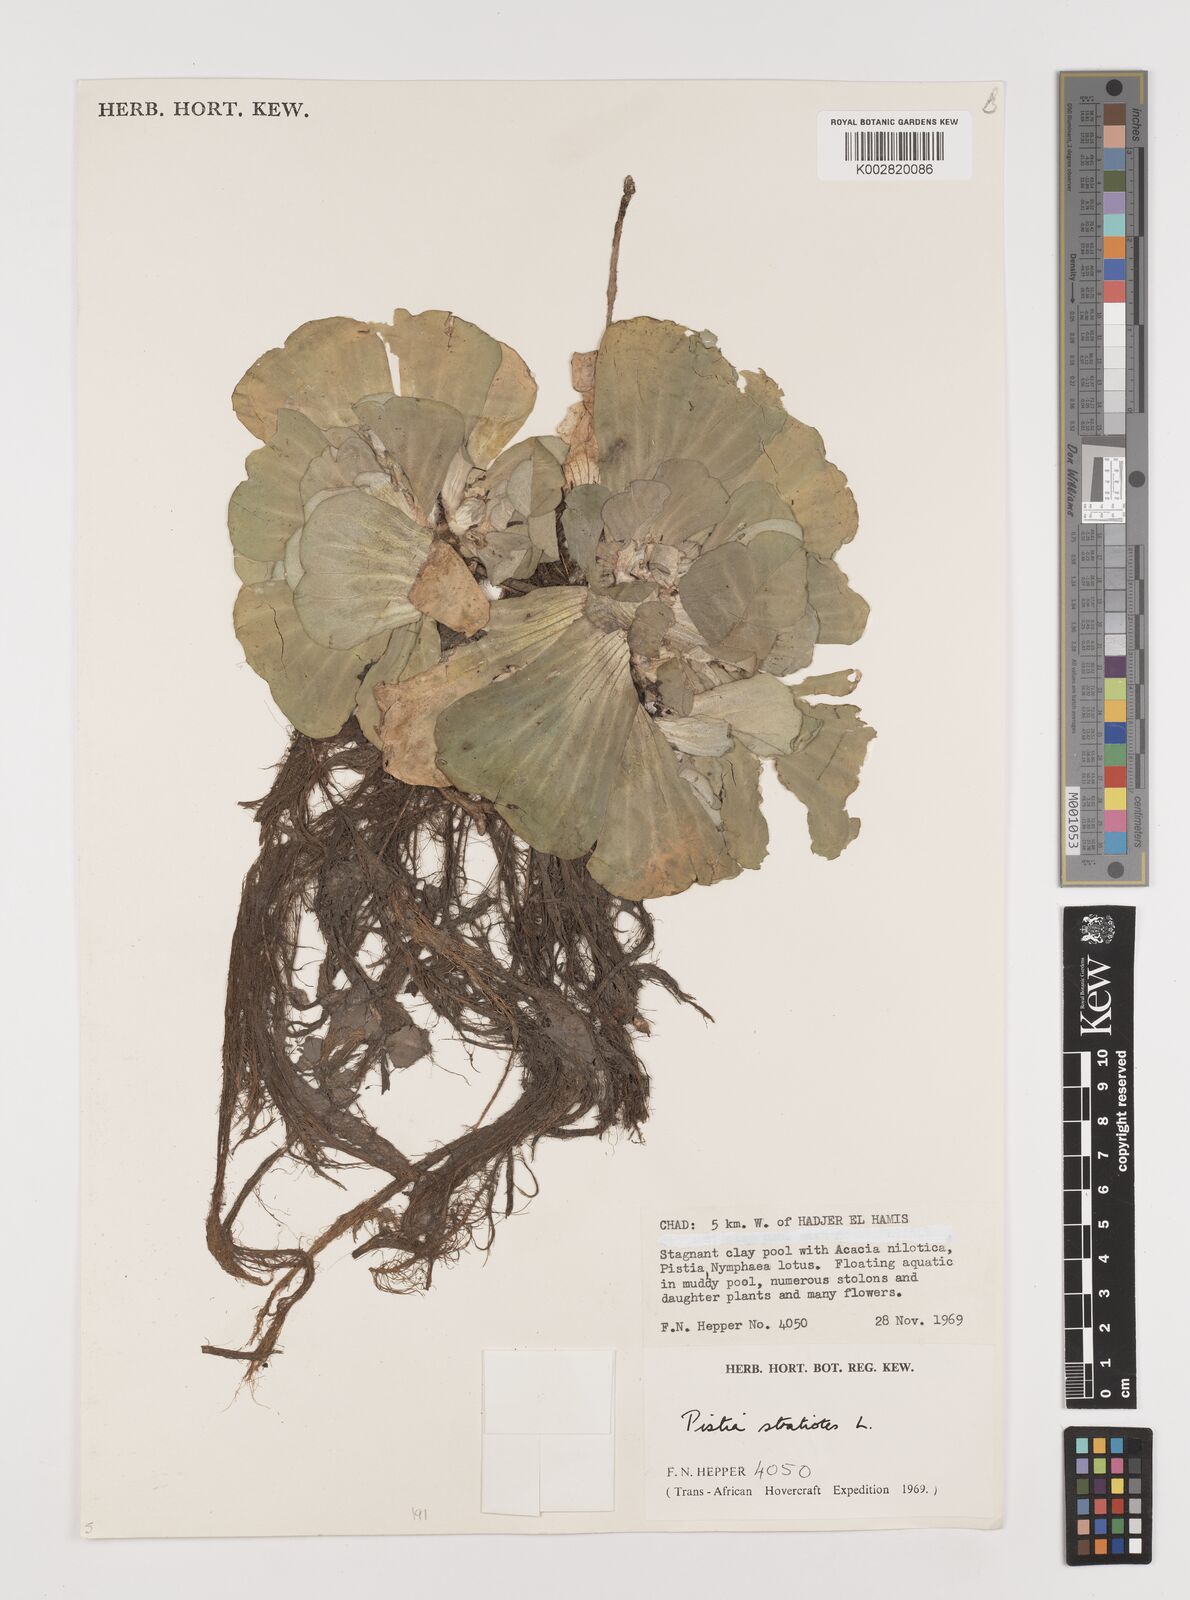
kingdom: Plantae
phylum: Tracheophyta
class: Liliopsida
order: Alismatales
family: Araceae
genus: Pistia
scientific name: Pistia stratiotes
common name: Water lettuce
